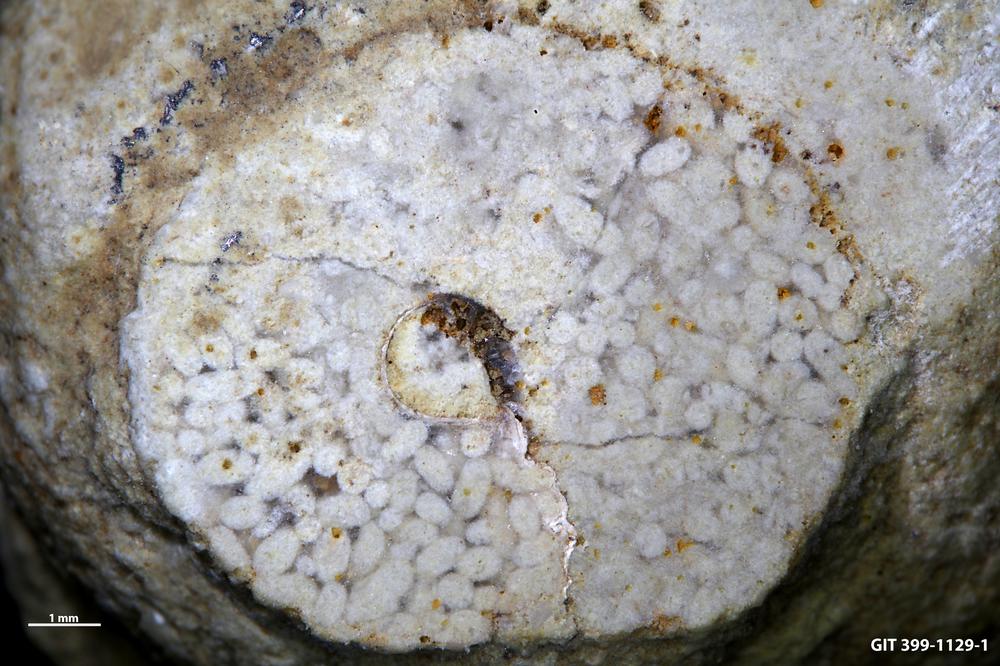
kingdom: Animalia
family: Coprulidae
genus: Coprulus
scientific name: Coprulus
